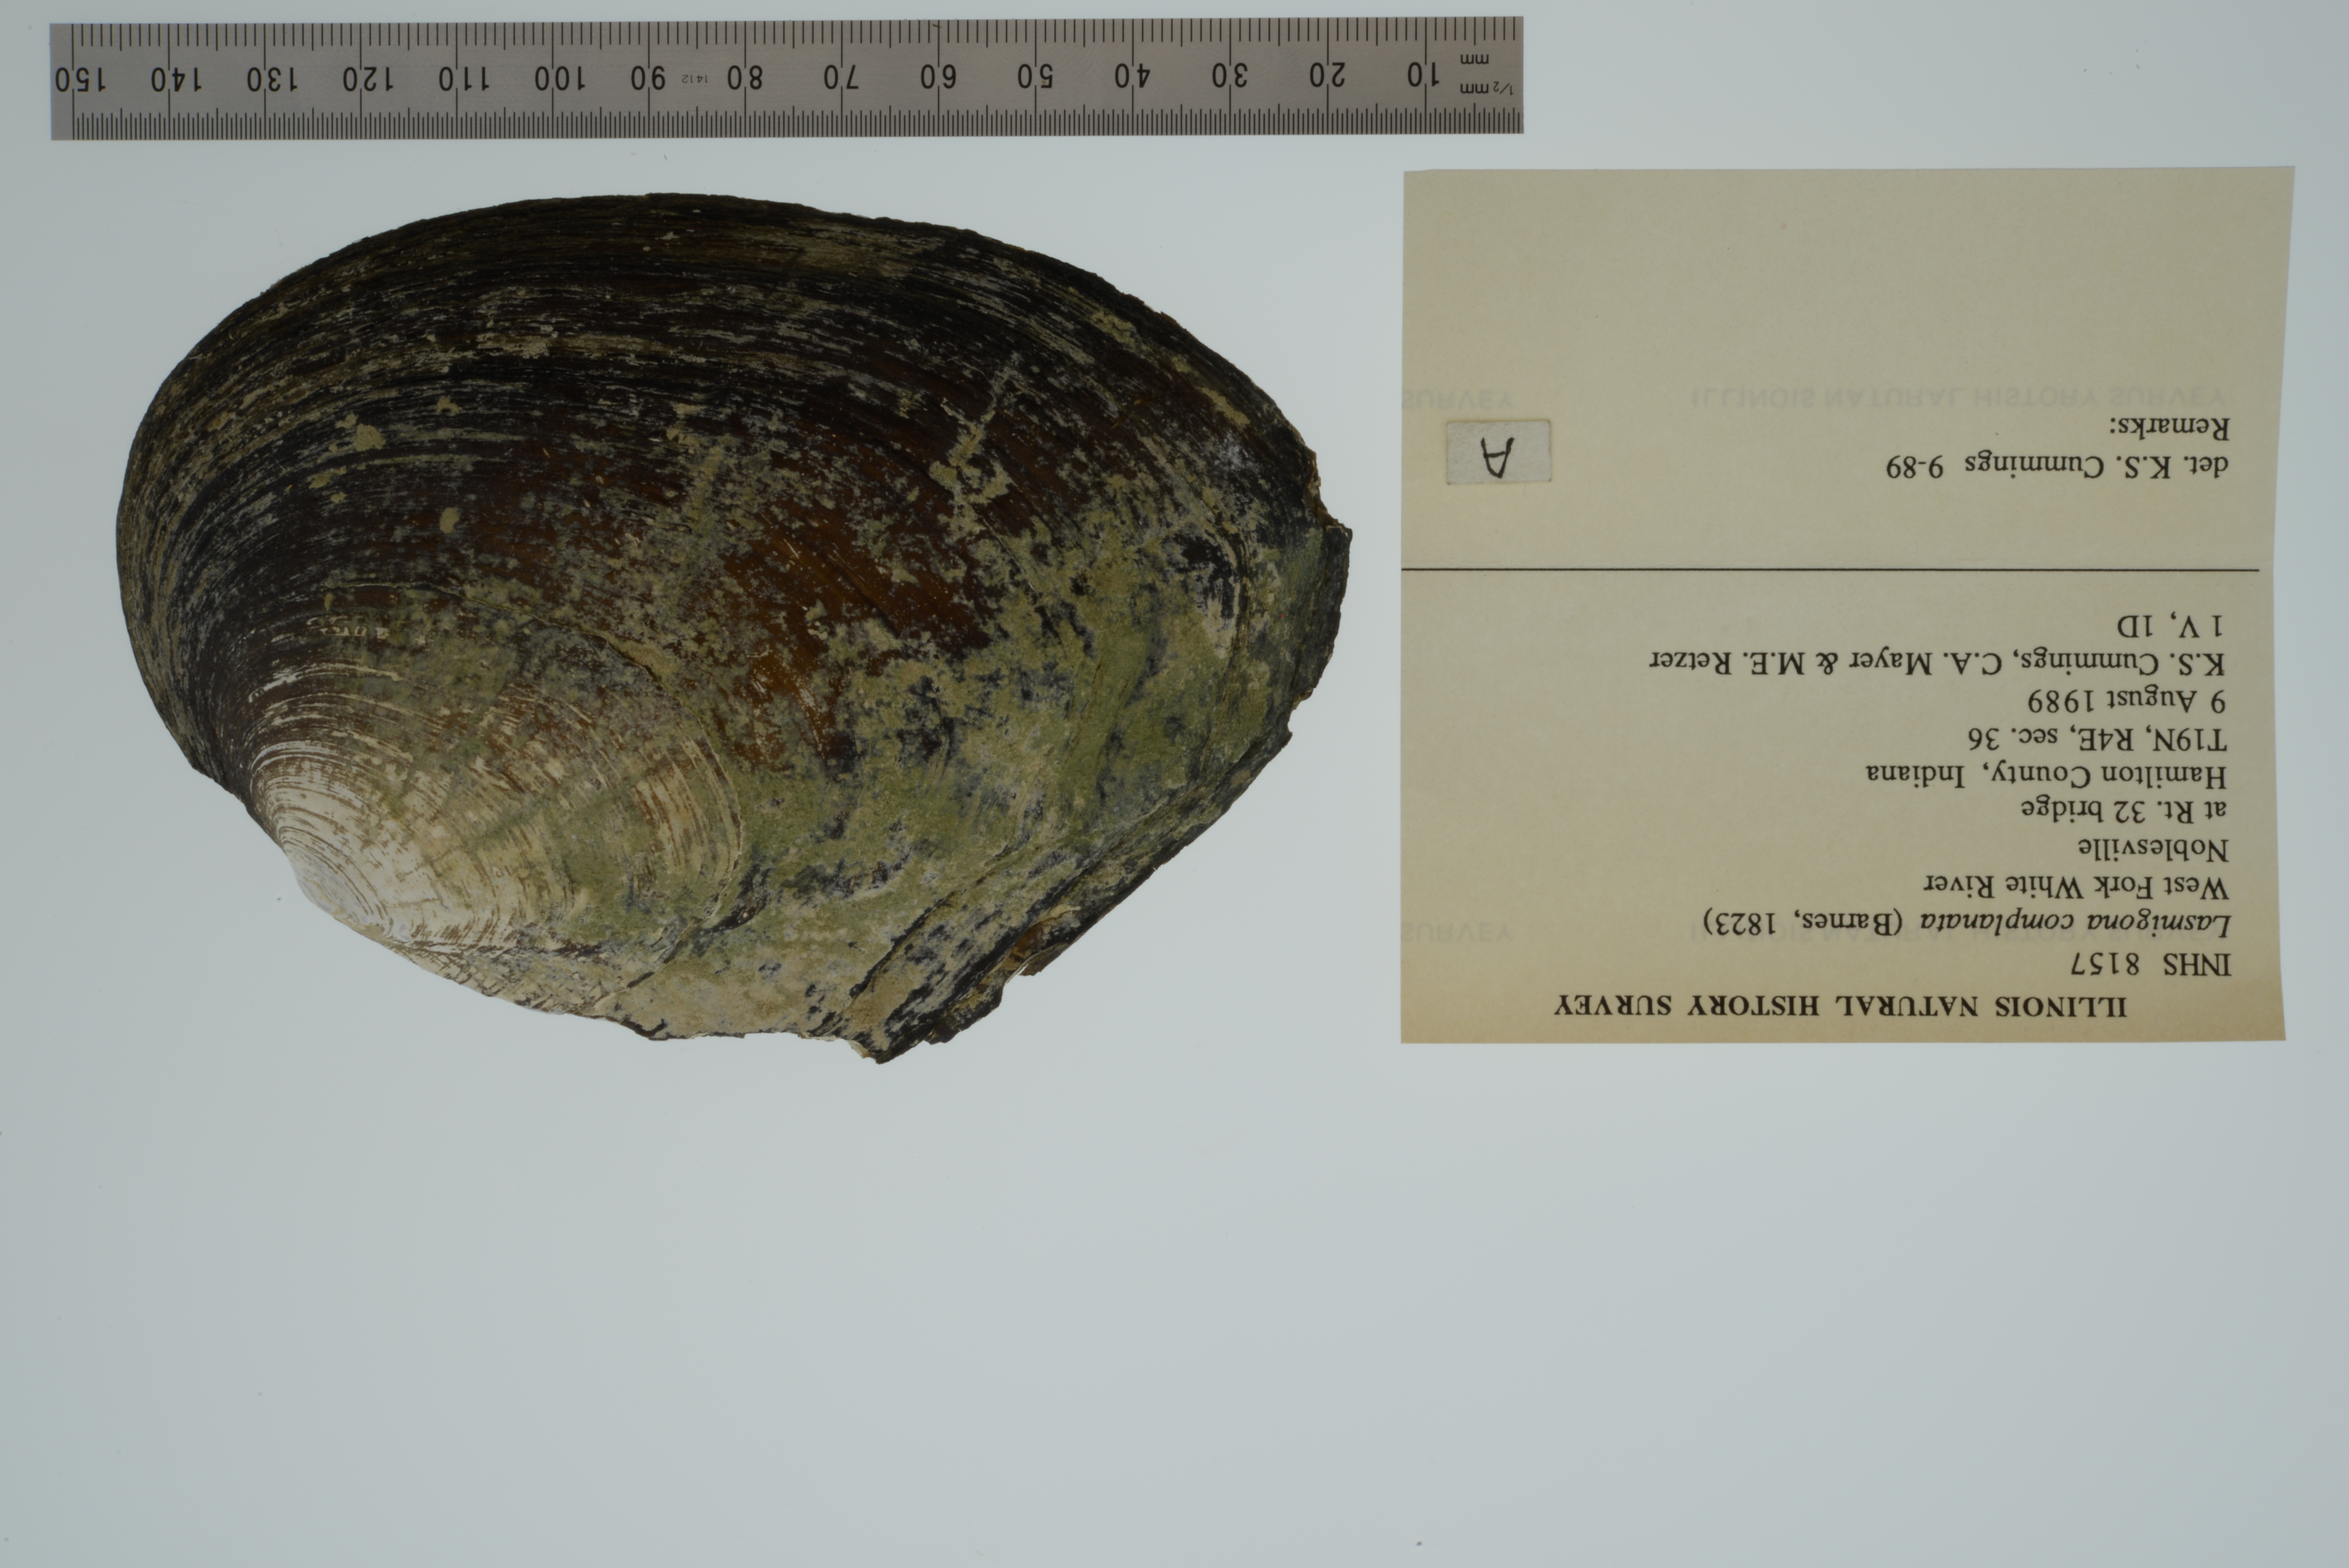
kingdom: Animalia
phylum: Mollusca
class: Bivalvia
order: Unionida
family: Unionidae
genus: Lasmigona
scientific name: Lasmigona complanata
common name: White heelsplitter
